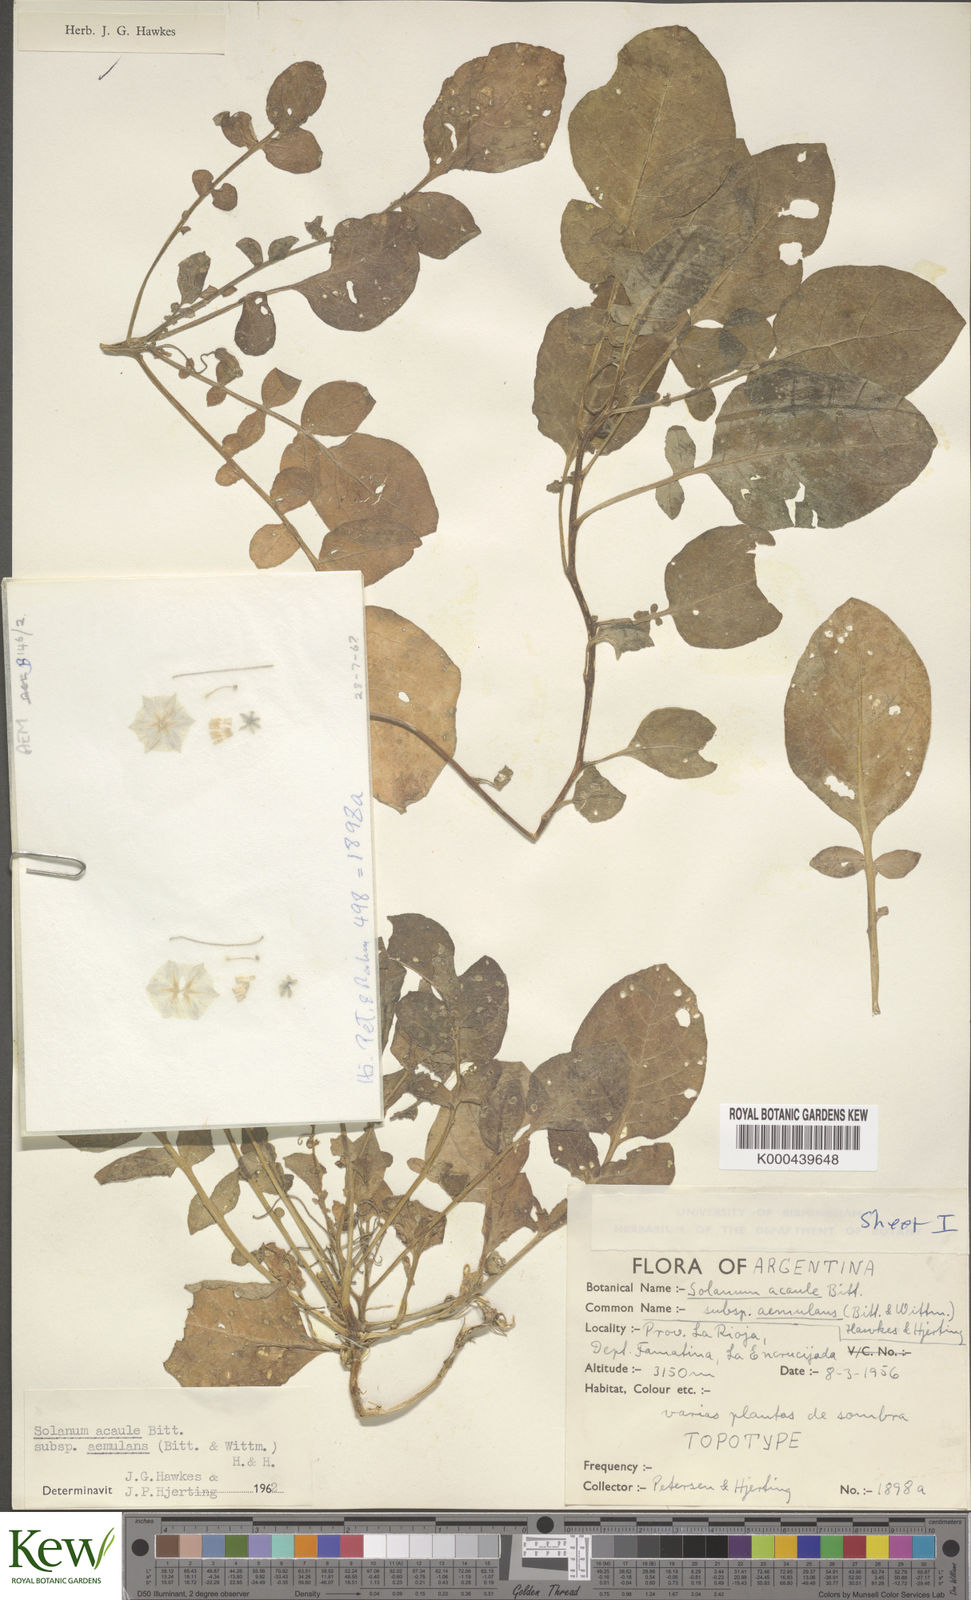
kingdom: Plantae
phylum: Tracheophyta
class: Magnoliopsida
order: Solanales
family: Solanaceae
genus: Solanum
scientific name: Solanum aemulans
